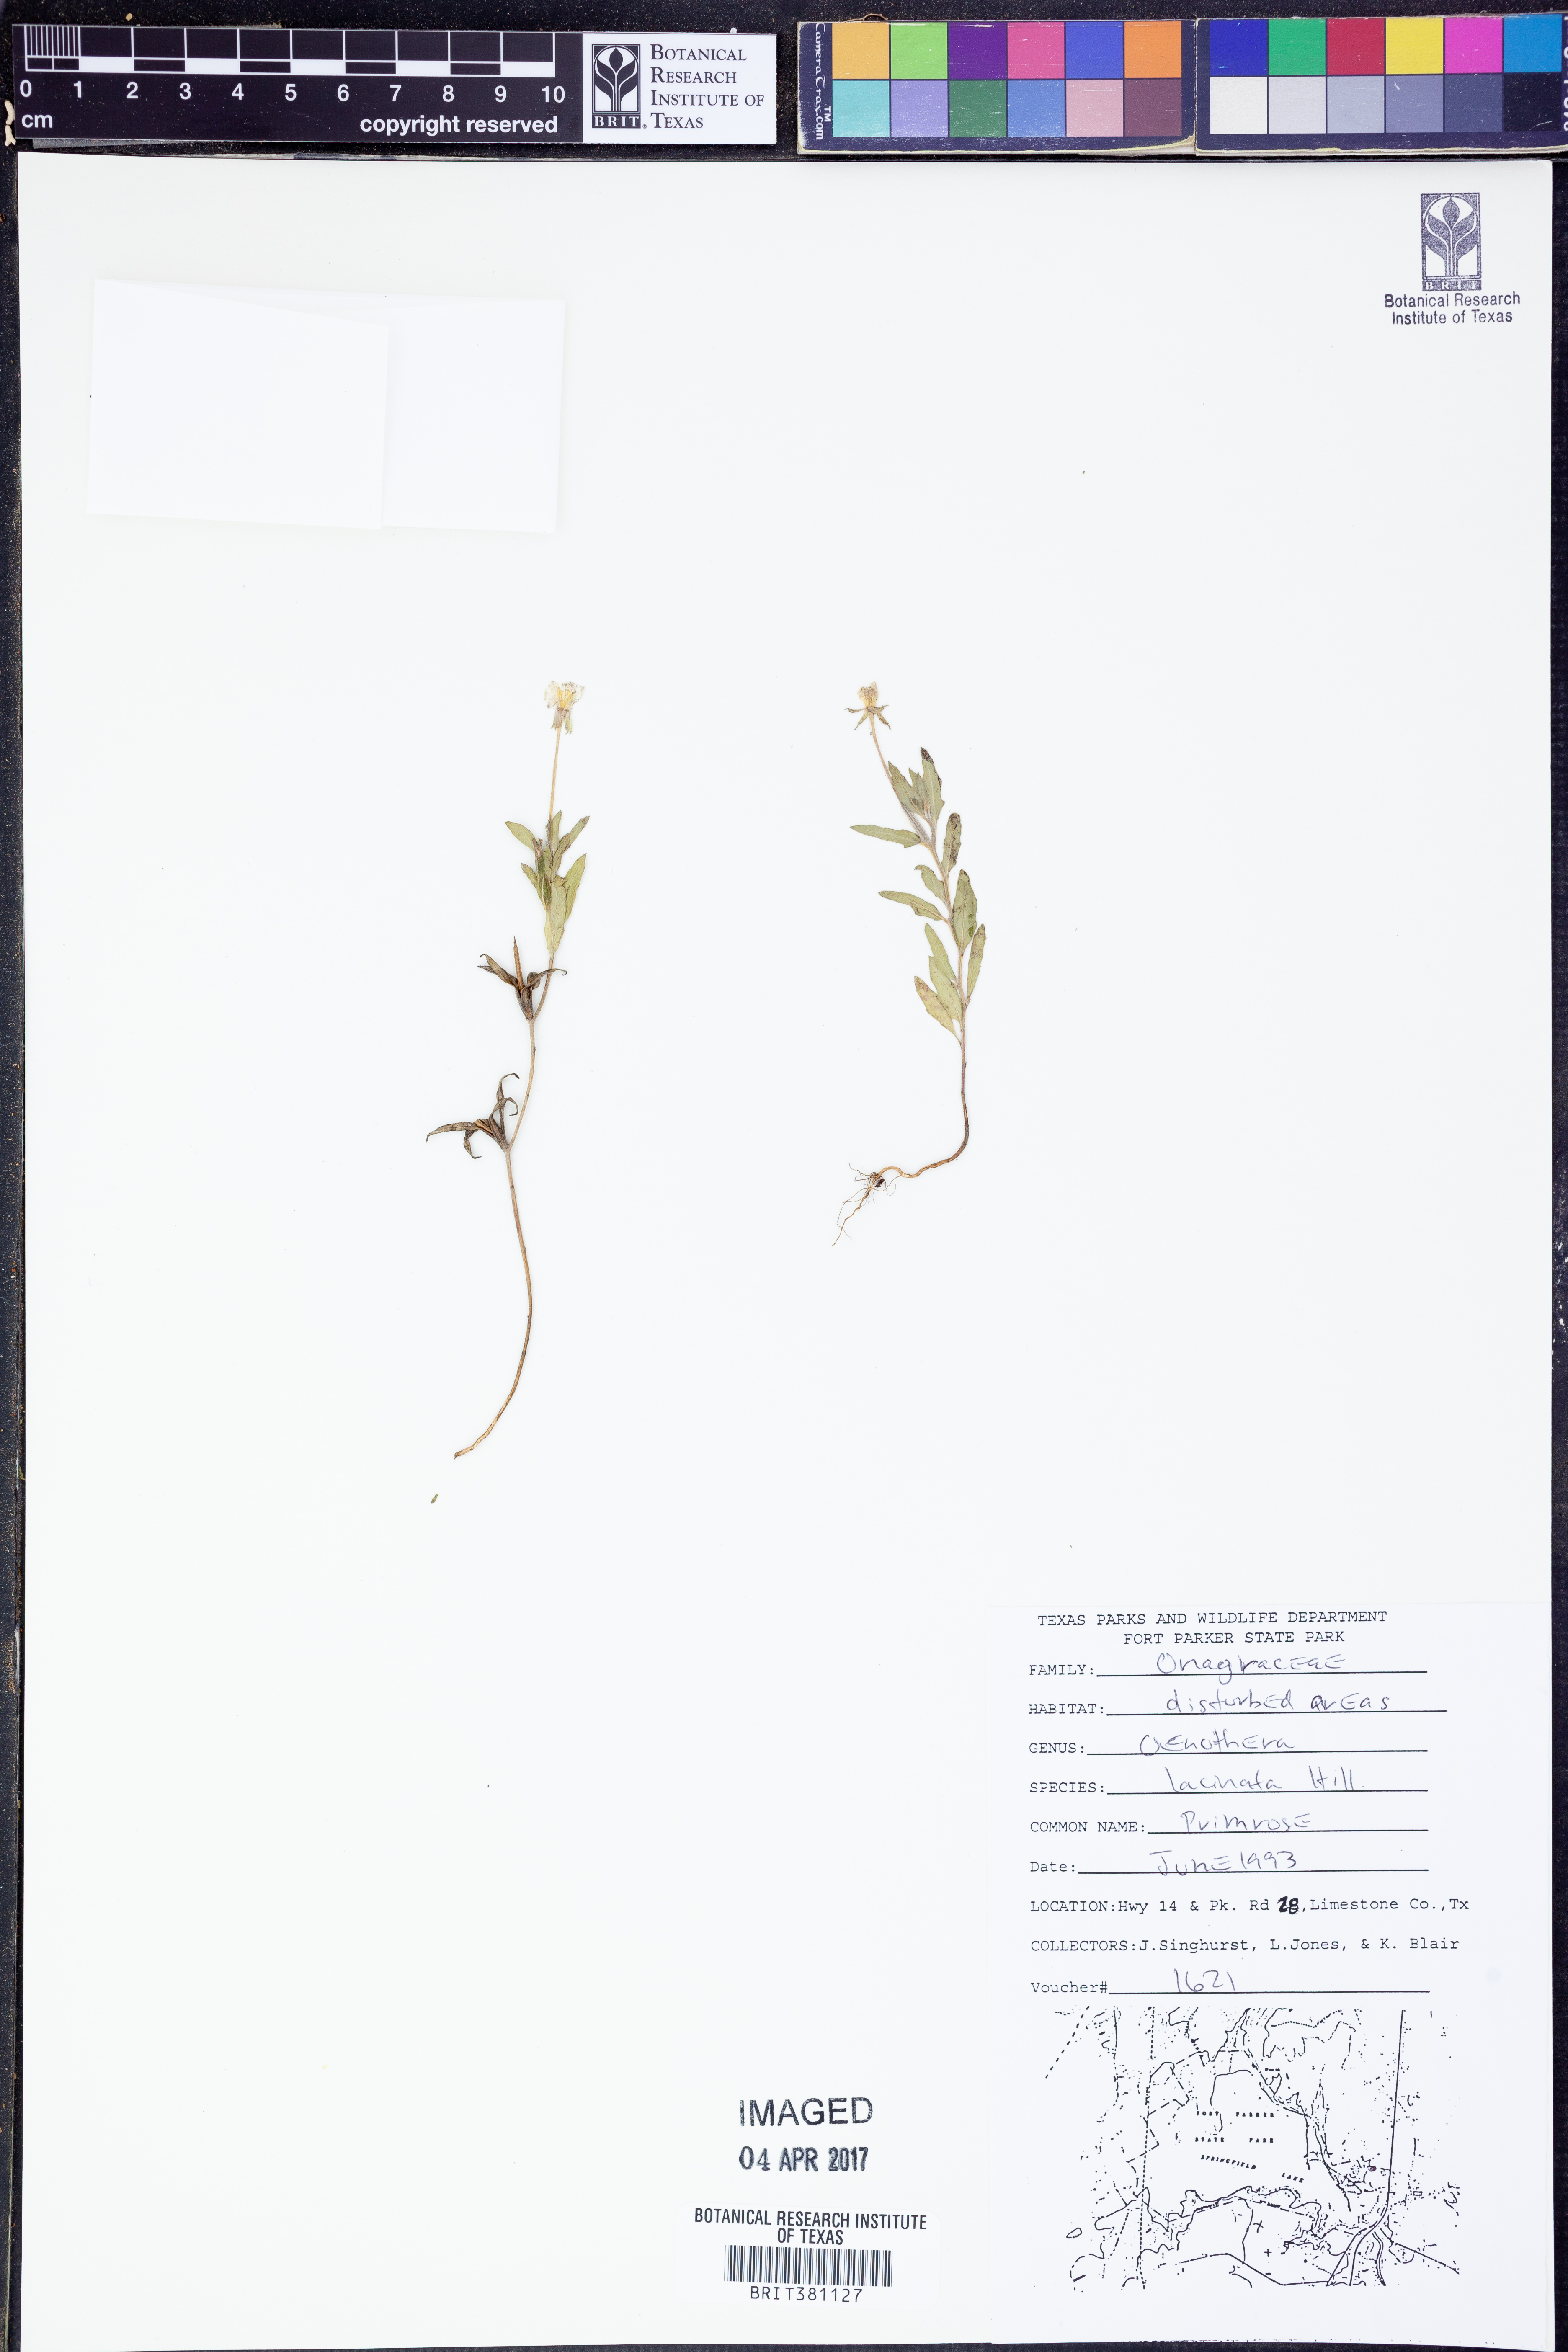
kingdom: Plantae
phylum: Tracheophyta
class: Magnoliopsida
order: Myrtales
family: Onagraceae
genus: Oenothera
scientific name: Oenothera laciniata
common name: Cut-leaved evening-primrose
